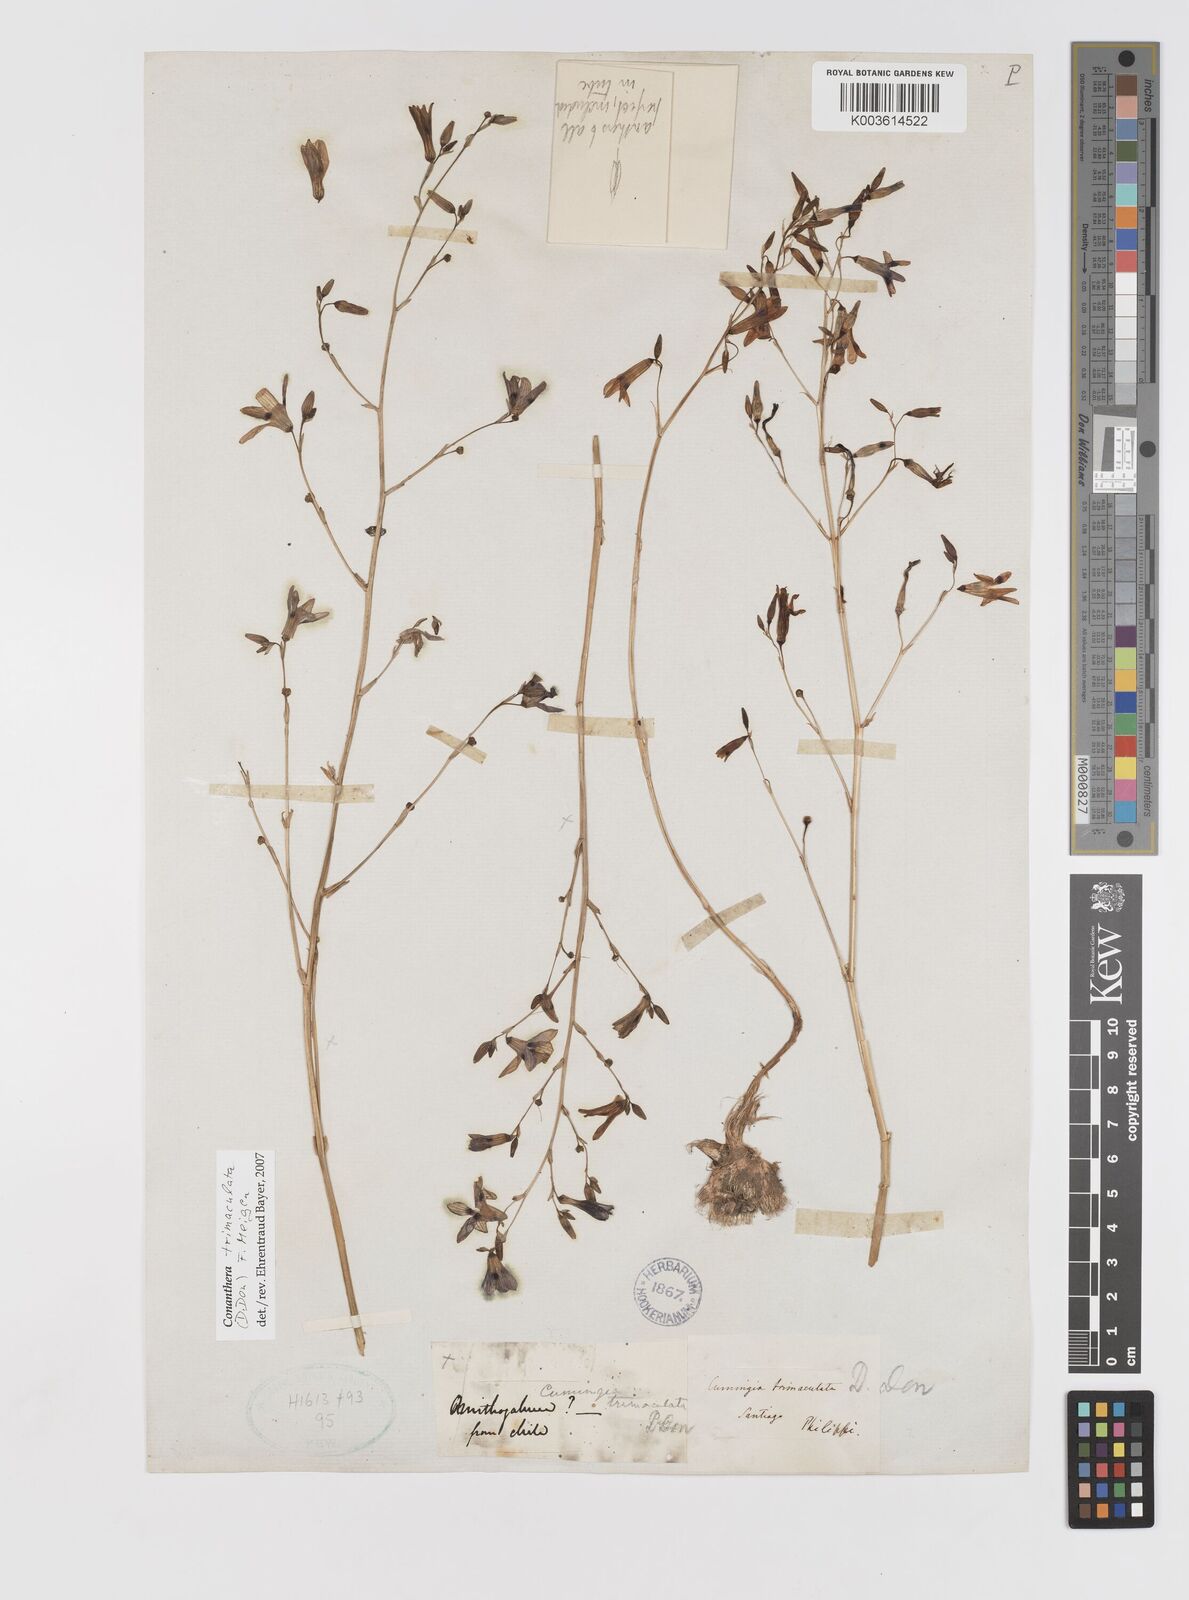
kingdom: Plantae
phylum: Tracheophyta
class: Liliopsida
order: Asparagales
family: Tecophilaeaceae
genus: Conanthera
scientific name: Conanthera trimaculata
